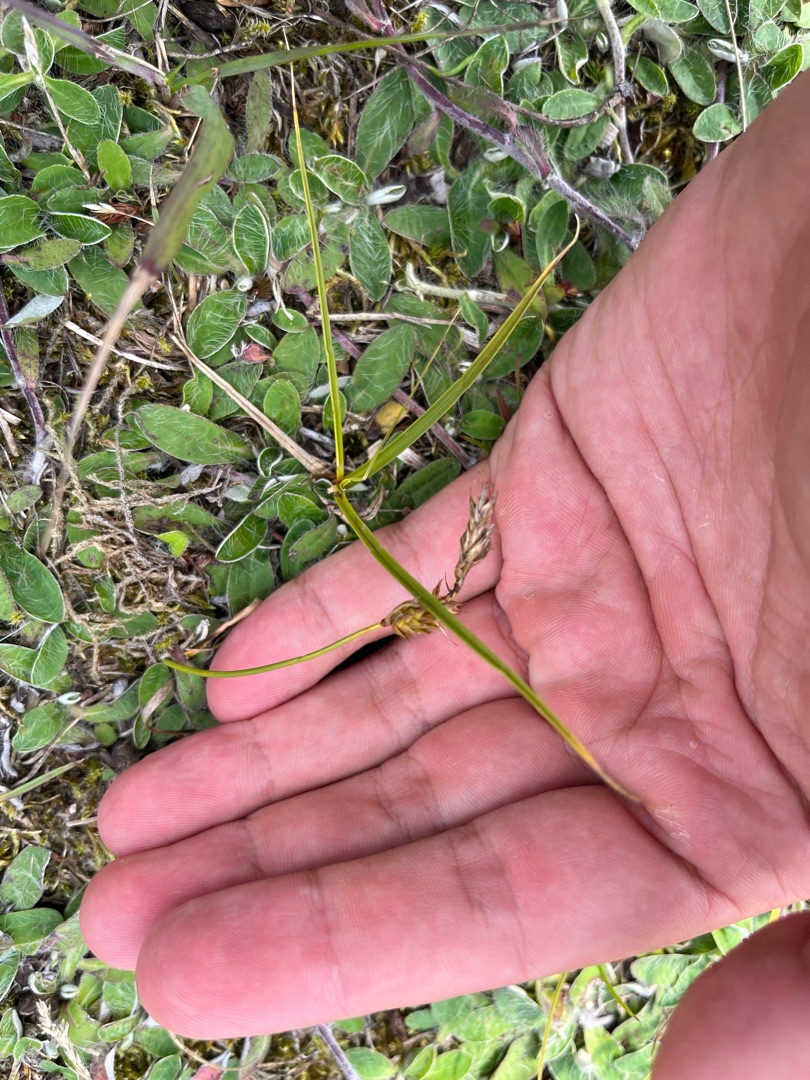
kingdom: Plantae
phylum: Tracheophyta
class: Liliopsida
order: Poales
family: Cyperaceae
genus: Carex
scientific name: Carex arenaria
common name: Sand-star
